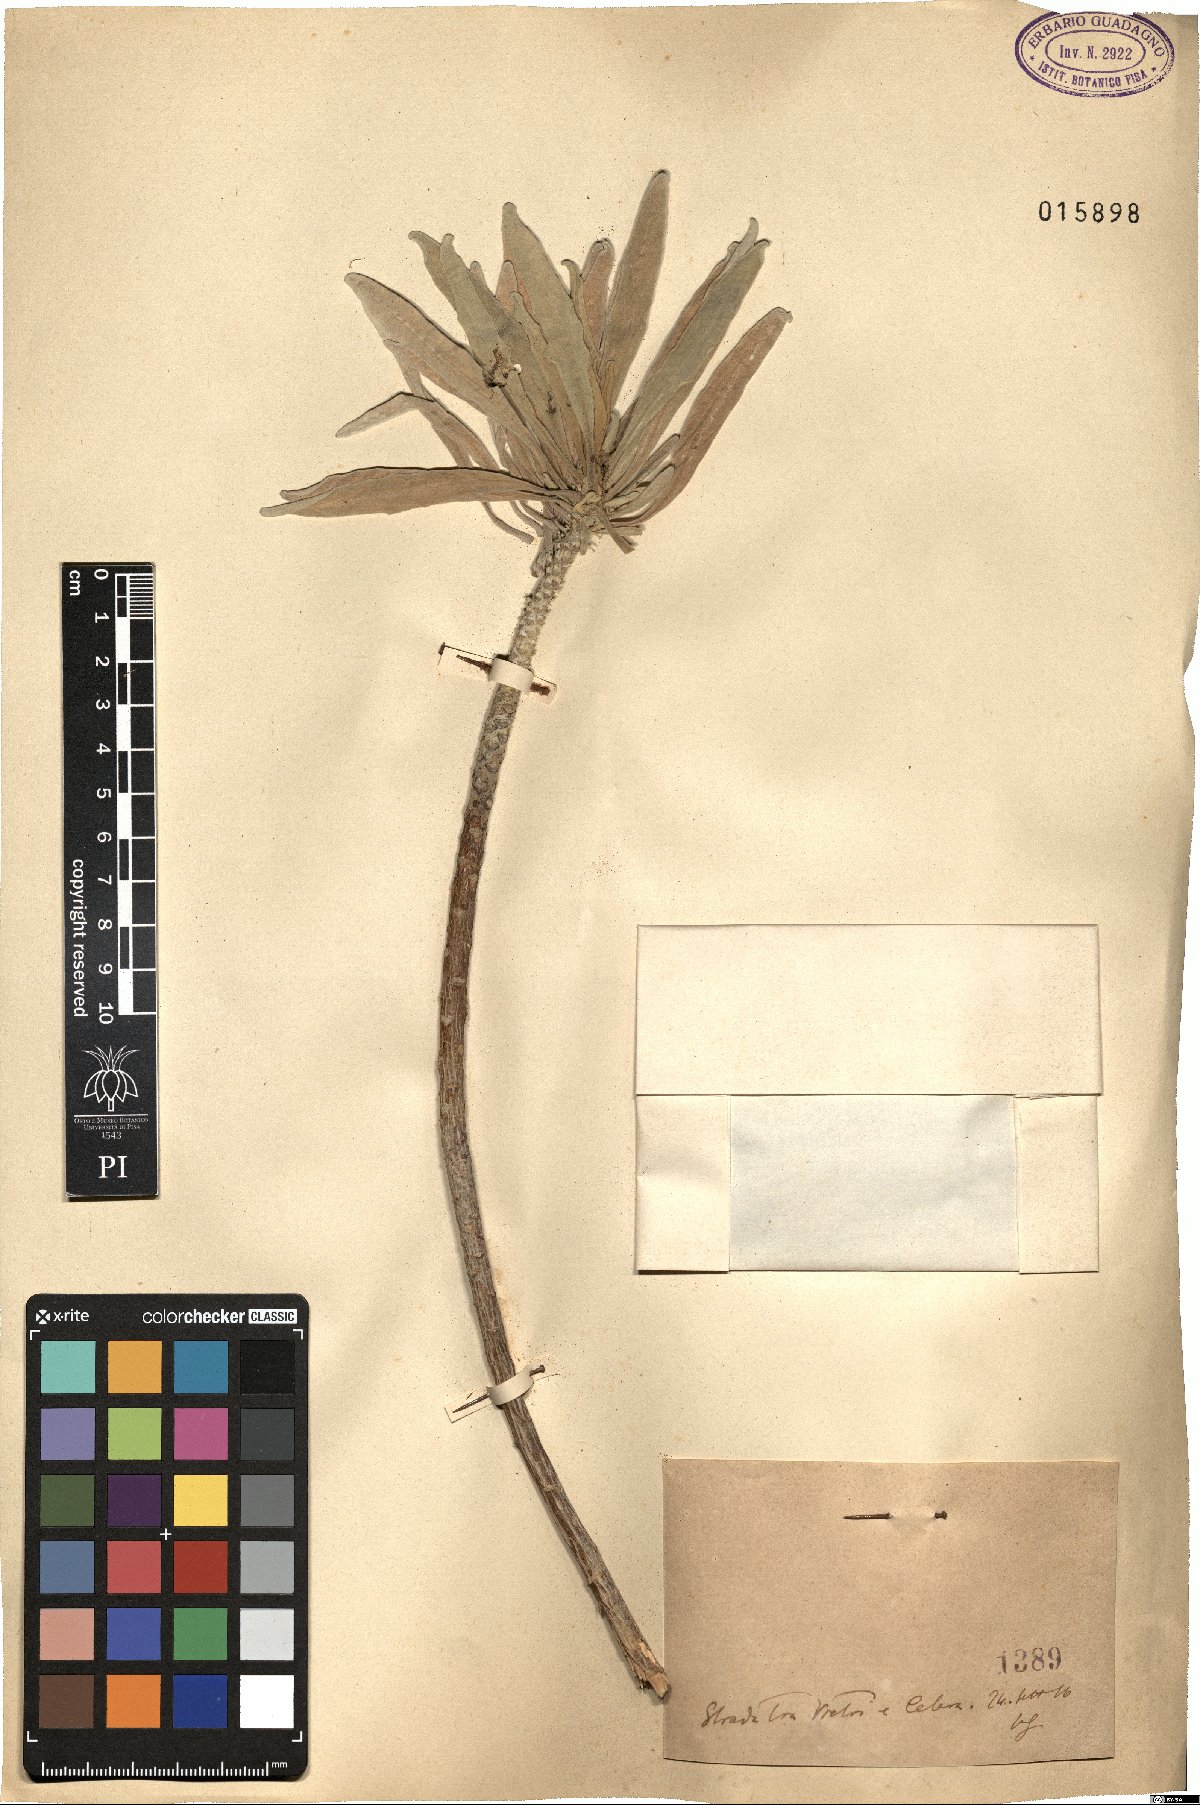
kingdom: Plantae
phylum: Tracheophyta
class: Magnoliopsida
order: Brassicales
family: Brassicaceae
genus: Matthiola
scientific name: Matthiola
